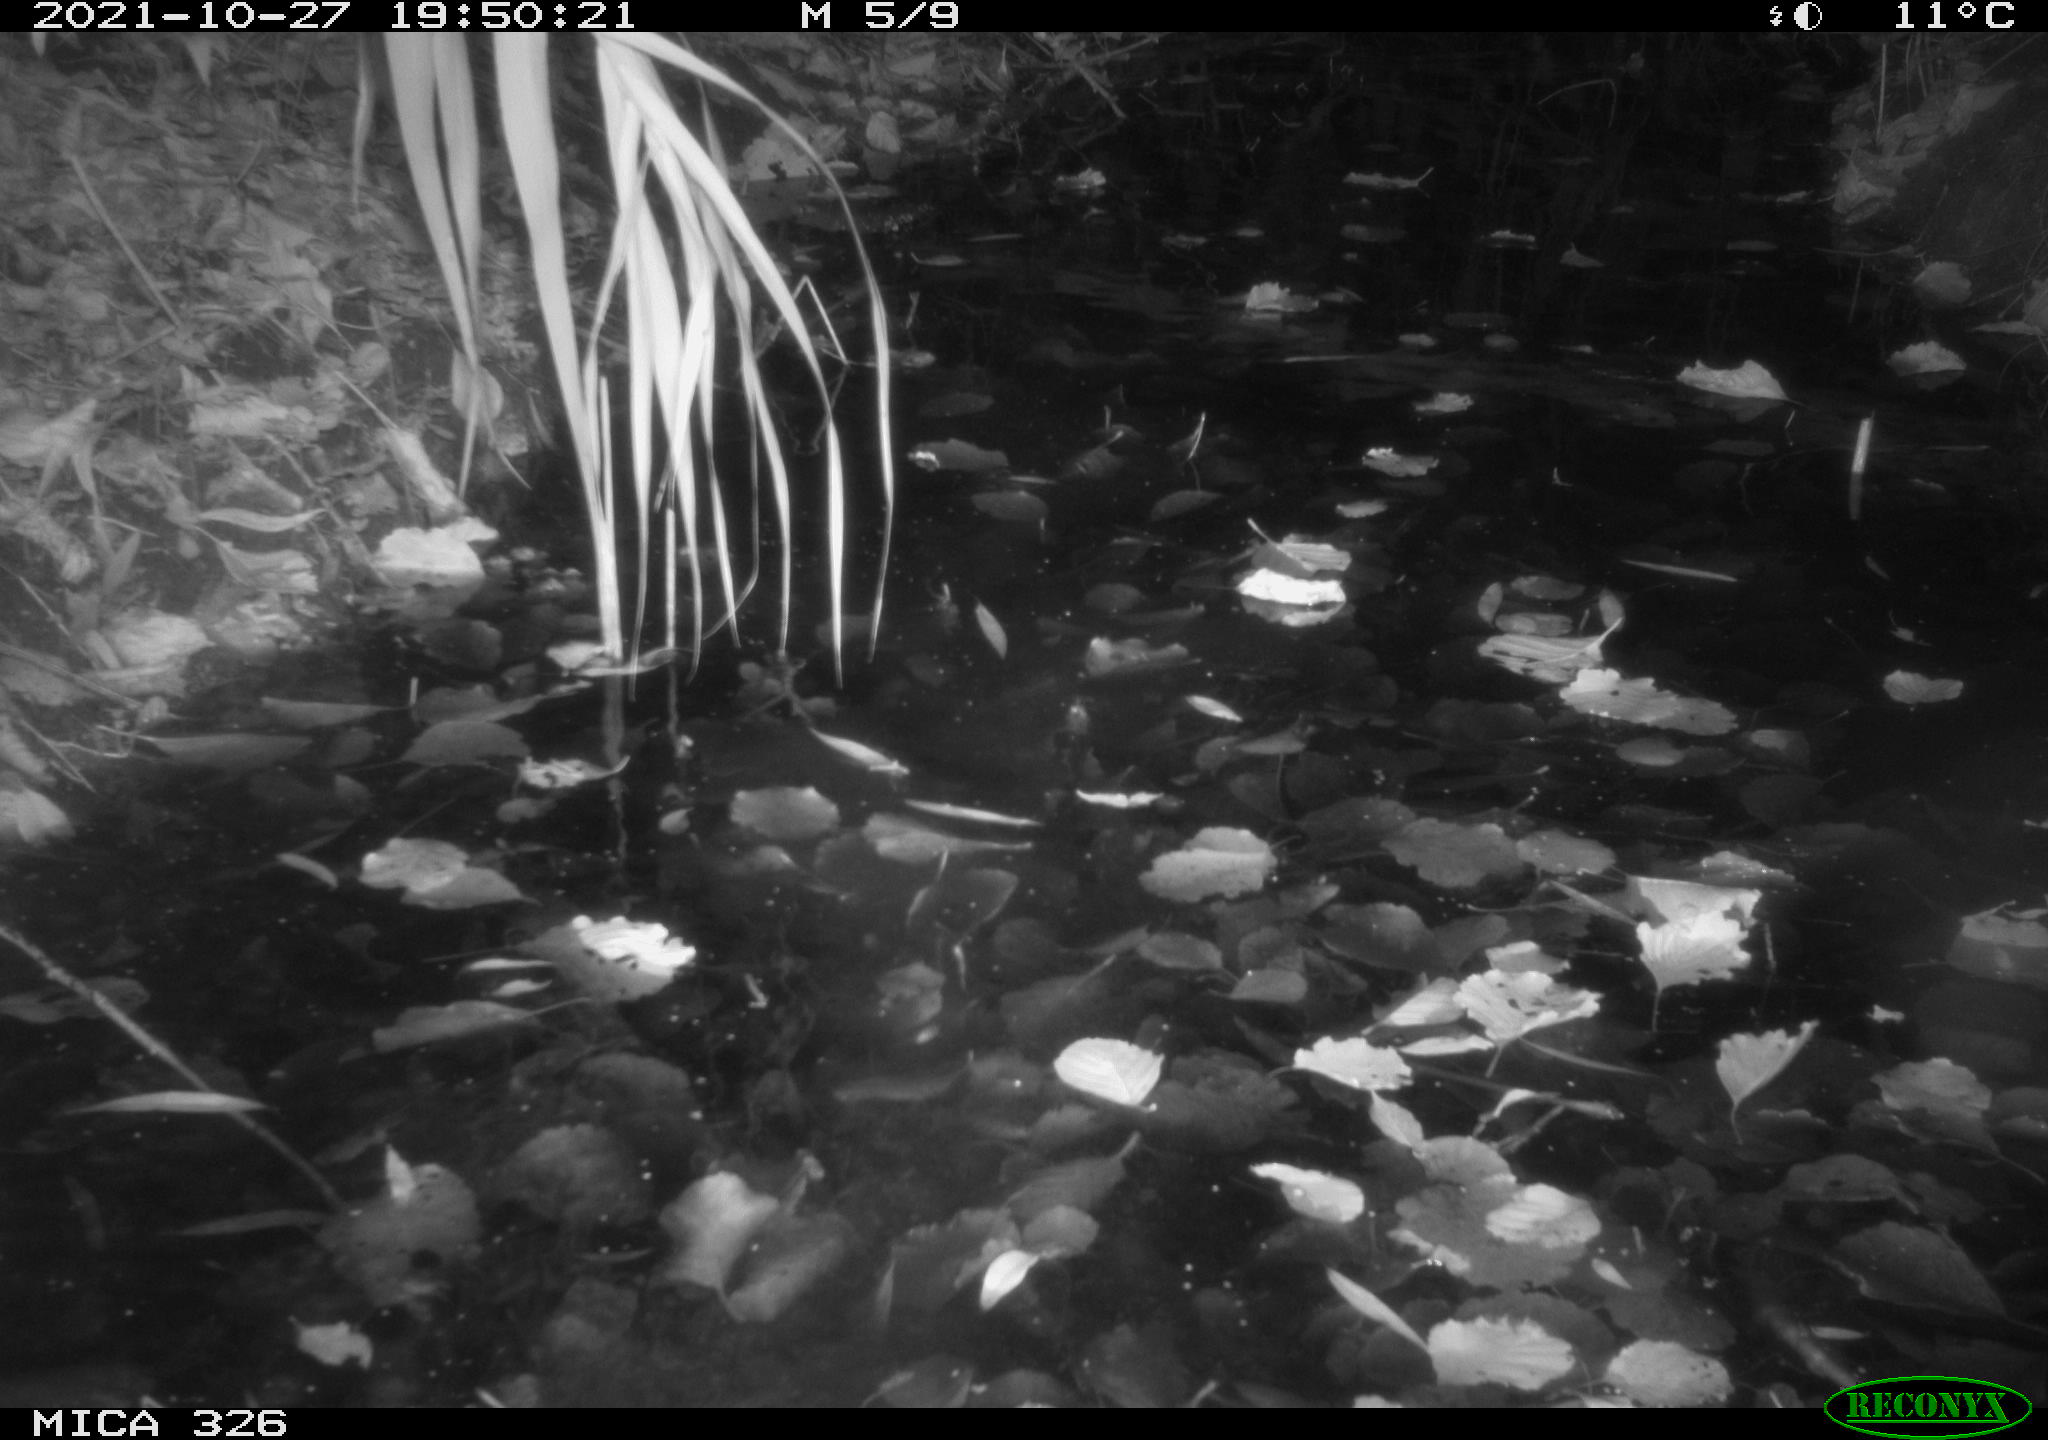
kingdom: Animalia
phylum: Chordata
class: Mammalia
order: Rodentia
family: Myocastoridae
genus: Myocastor
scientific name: Myocastor coypus
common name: Coypu
